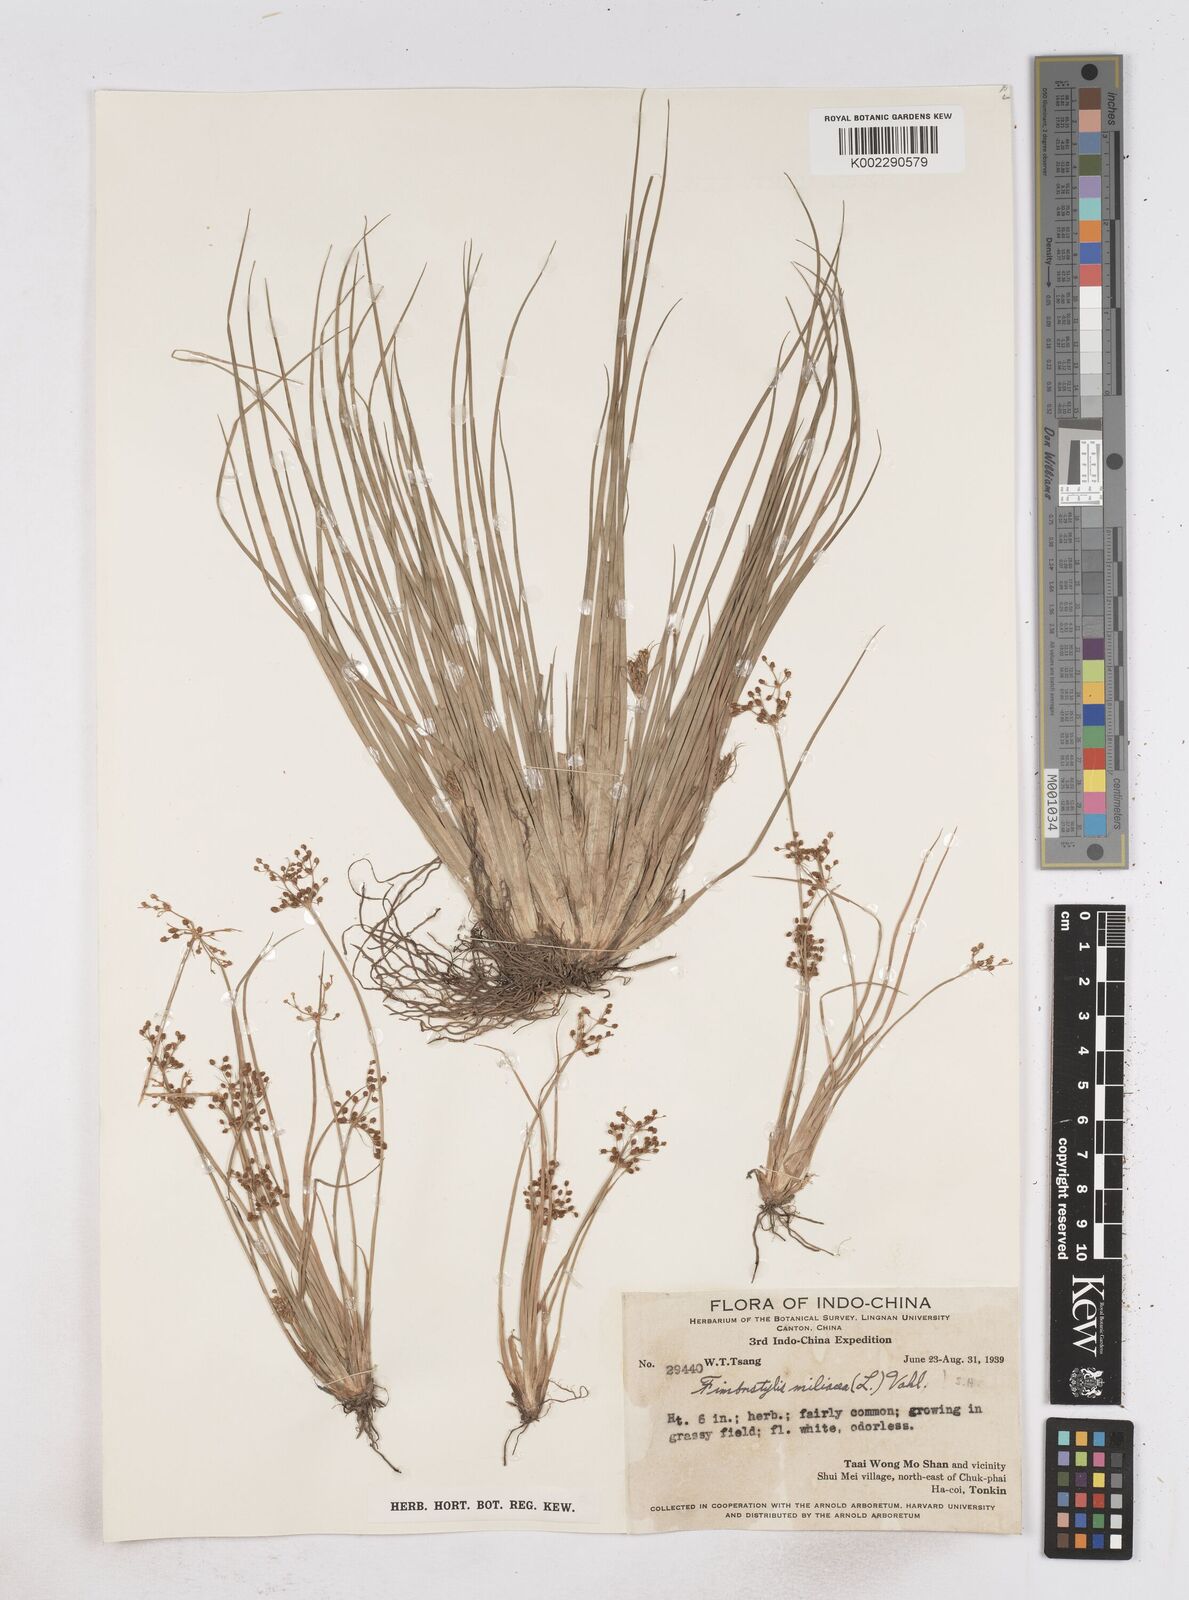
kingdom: Plantae
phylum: Tracheophyta
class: Liliopsida
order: Poales
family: Cyperaceae
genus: Fimbristylis
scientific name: Fimbristylis littoralis
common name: Fimbry
